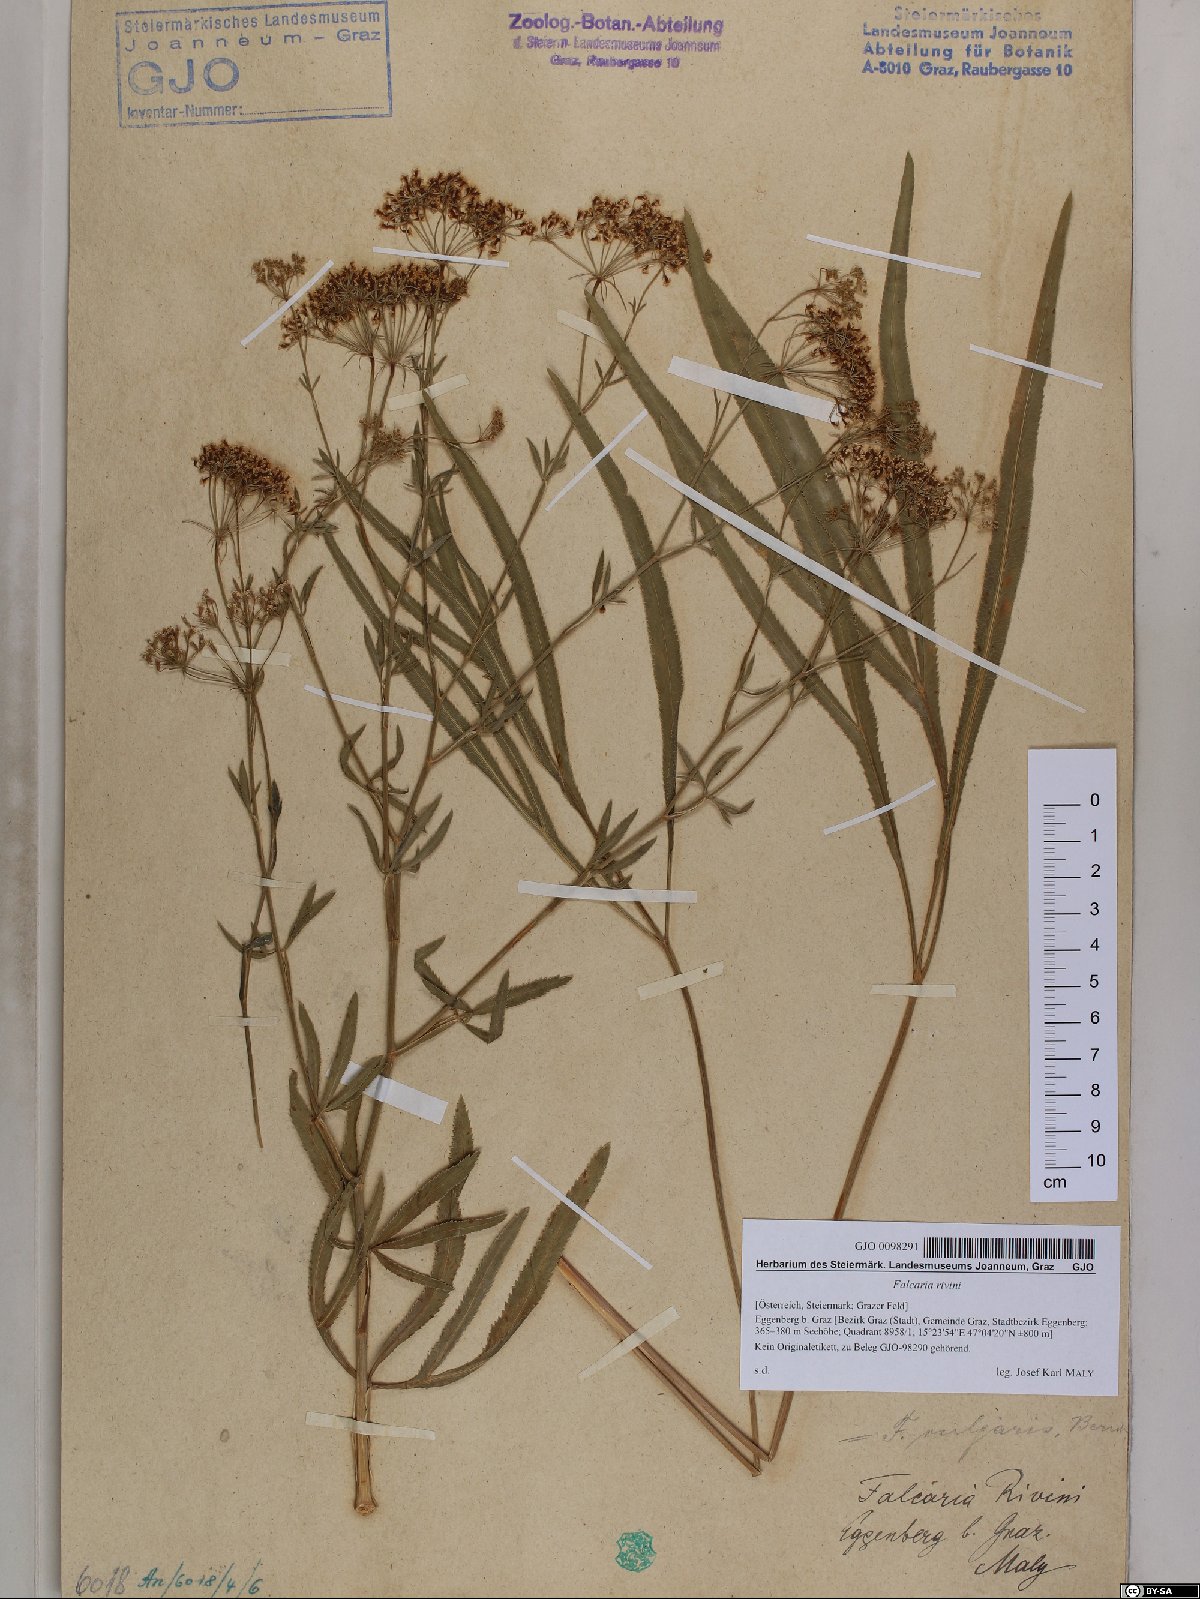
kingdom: Plantae
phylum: Tracheophyta
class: Magnoliopsida
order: Apiales
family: Apiaceae
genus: Falcaria
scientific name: Falcaria vulgaris
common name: Longleaf
